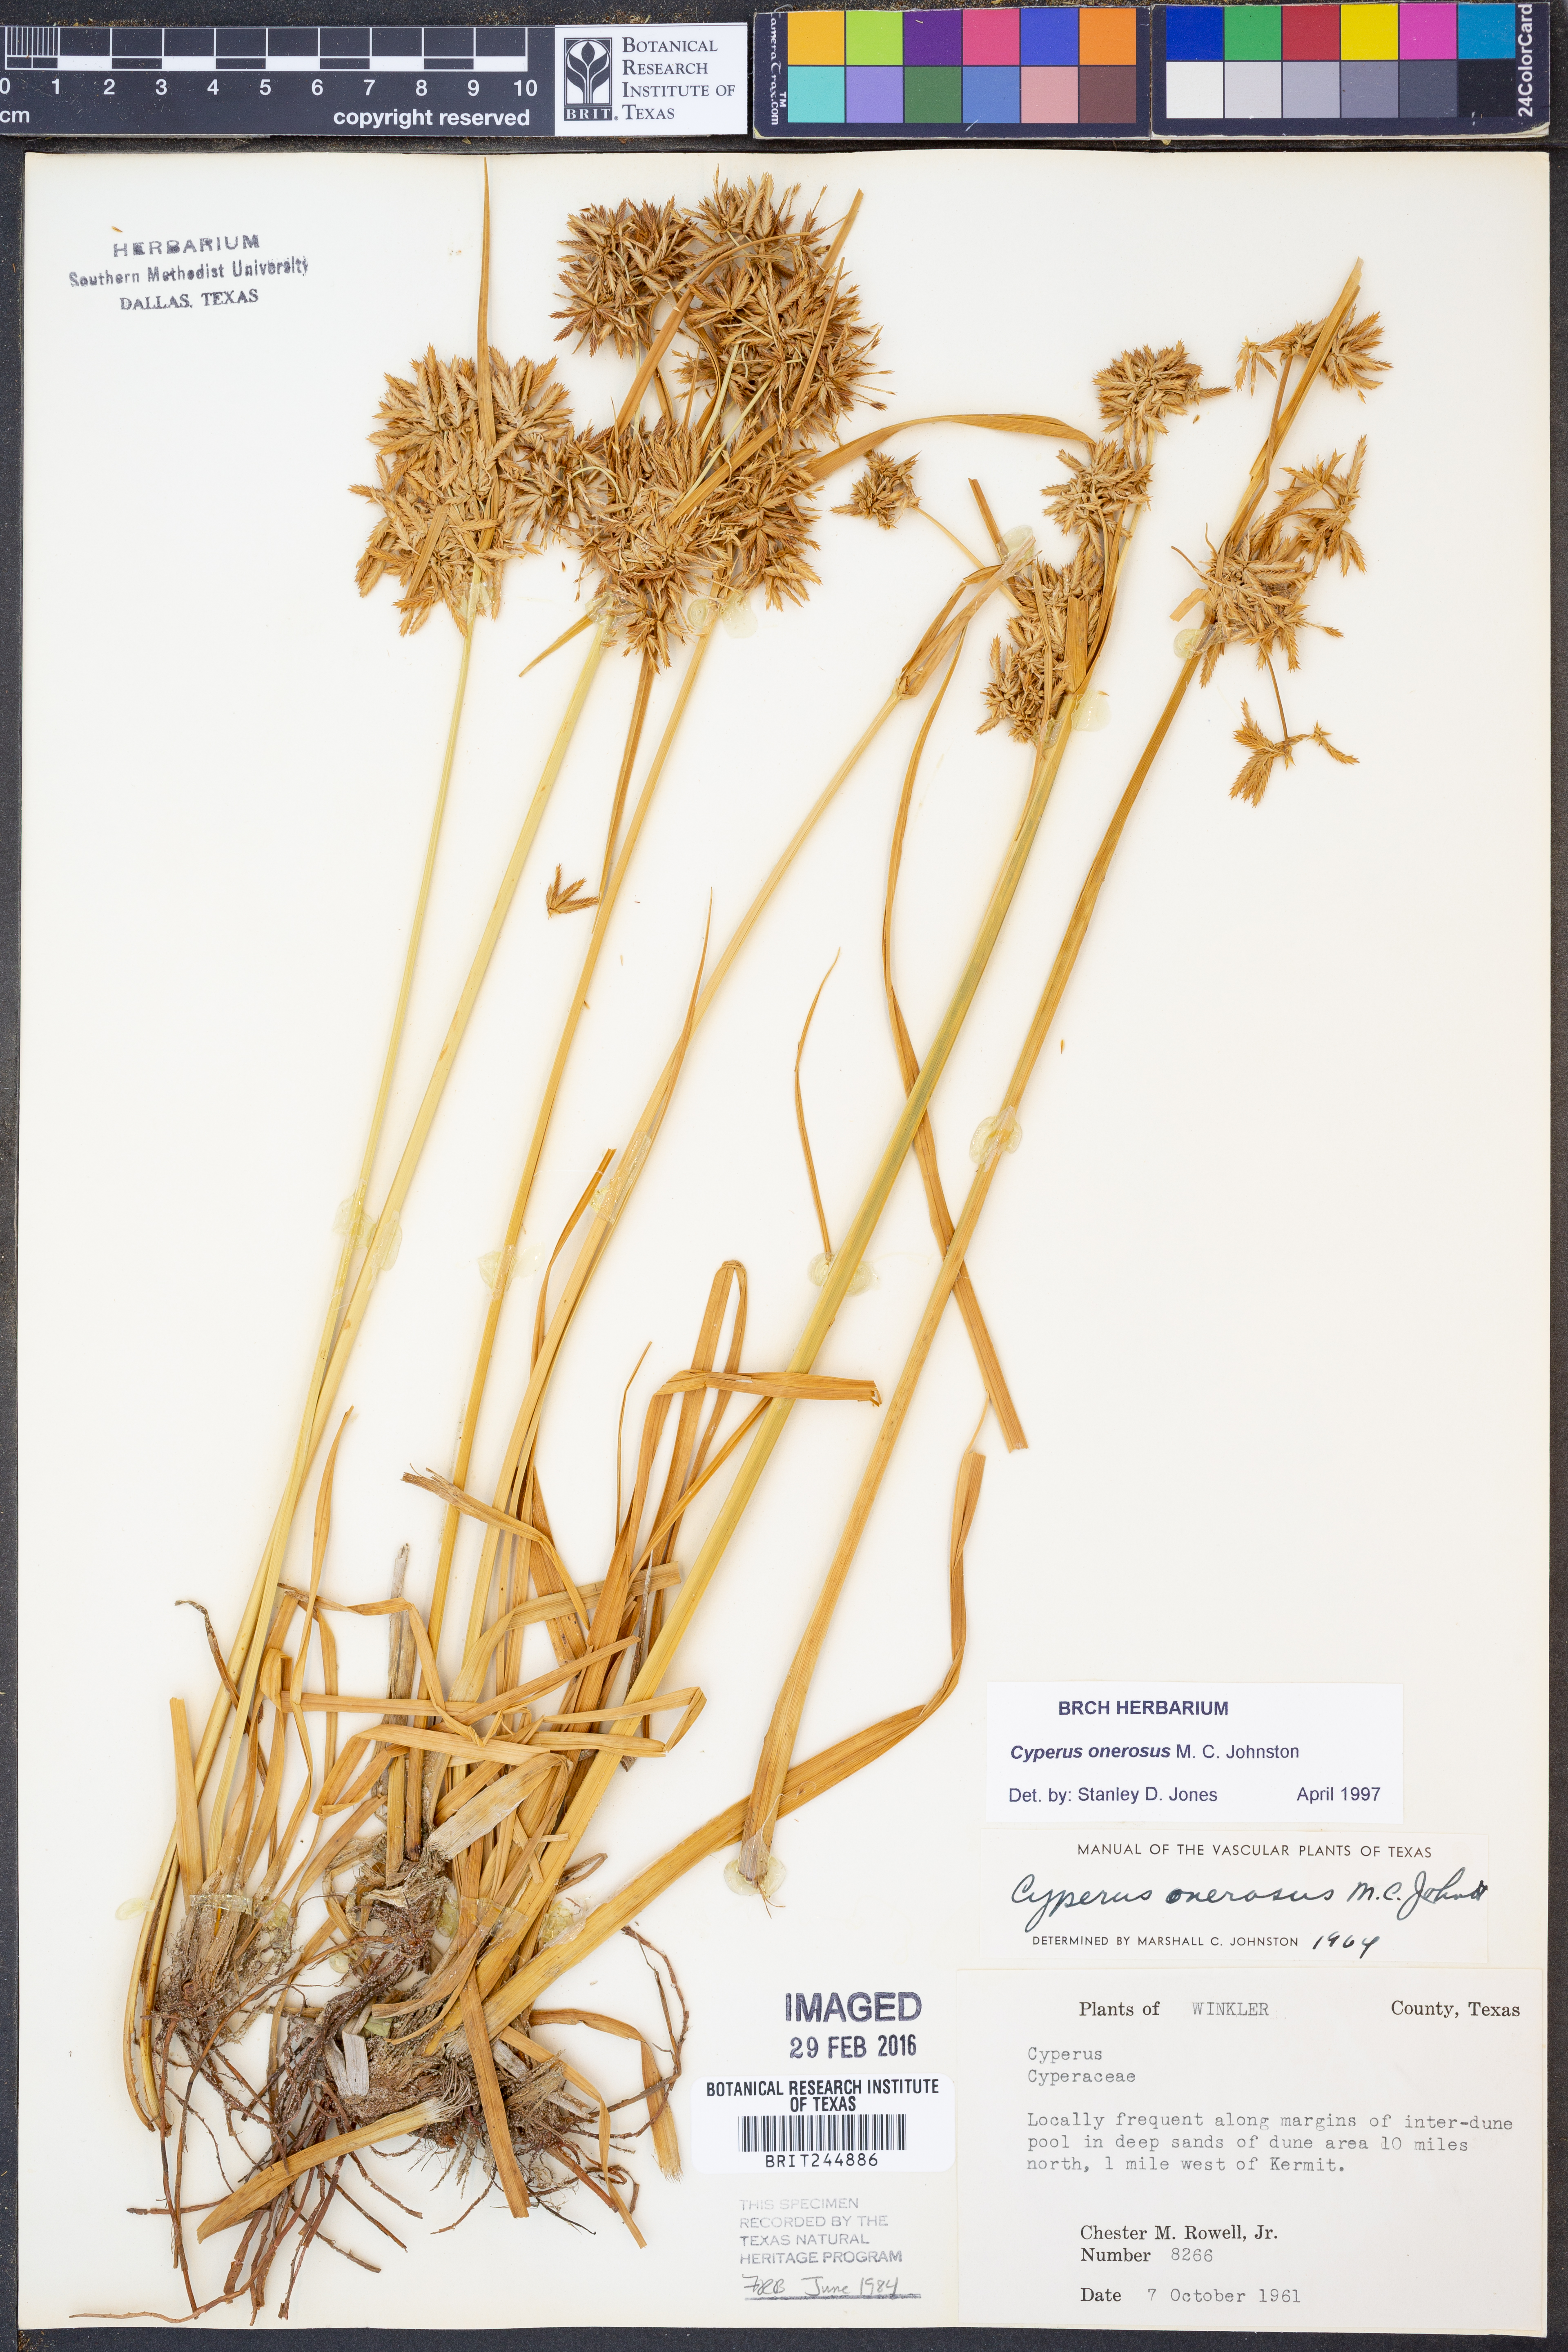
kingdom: Plantae
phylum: Tracheophyta
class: Liliopsida
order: Poales
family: Cyperaceae
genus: Cyperus
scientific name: Cyperus onerosus
